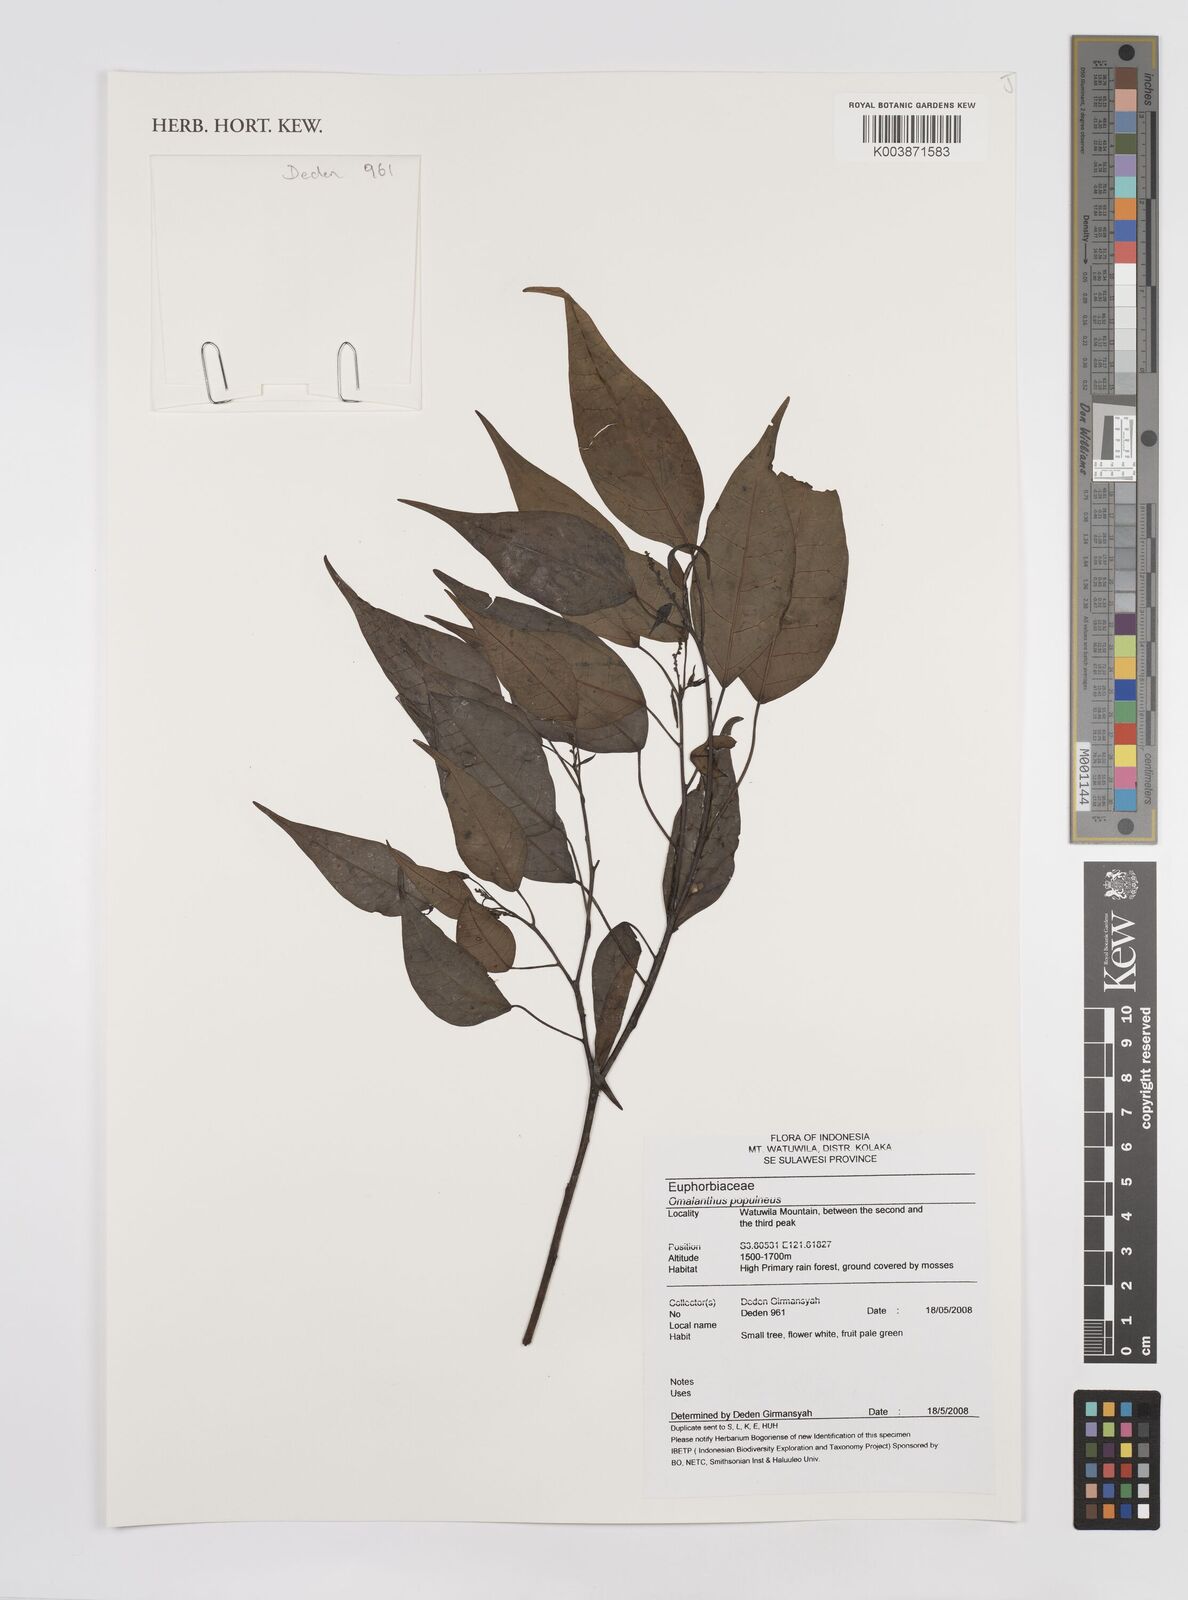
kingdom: Plantae
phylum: Tracheophyta
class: Magnoliopsida
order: Malpighiales
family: Euphorbiaceae
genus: Homalanthus
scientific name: Homalanthus populneus
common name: Spurge
